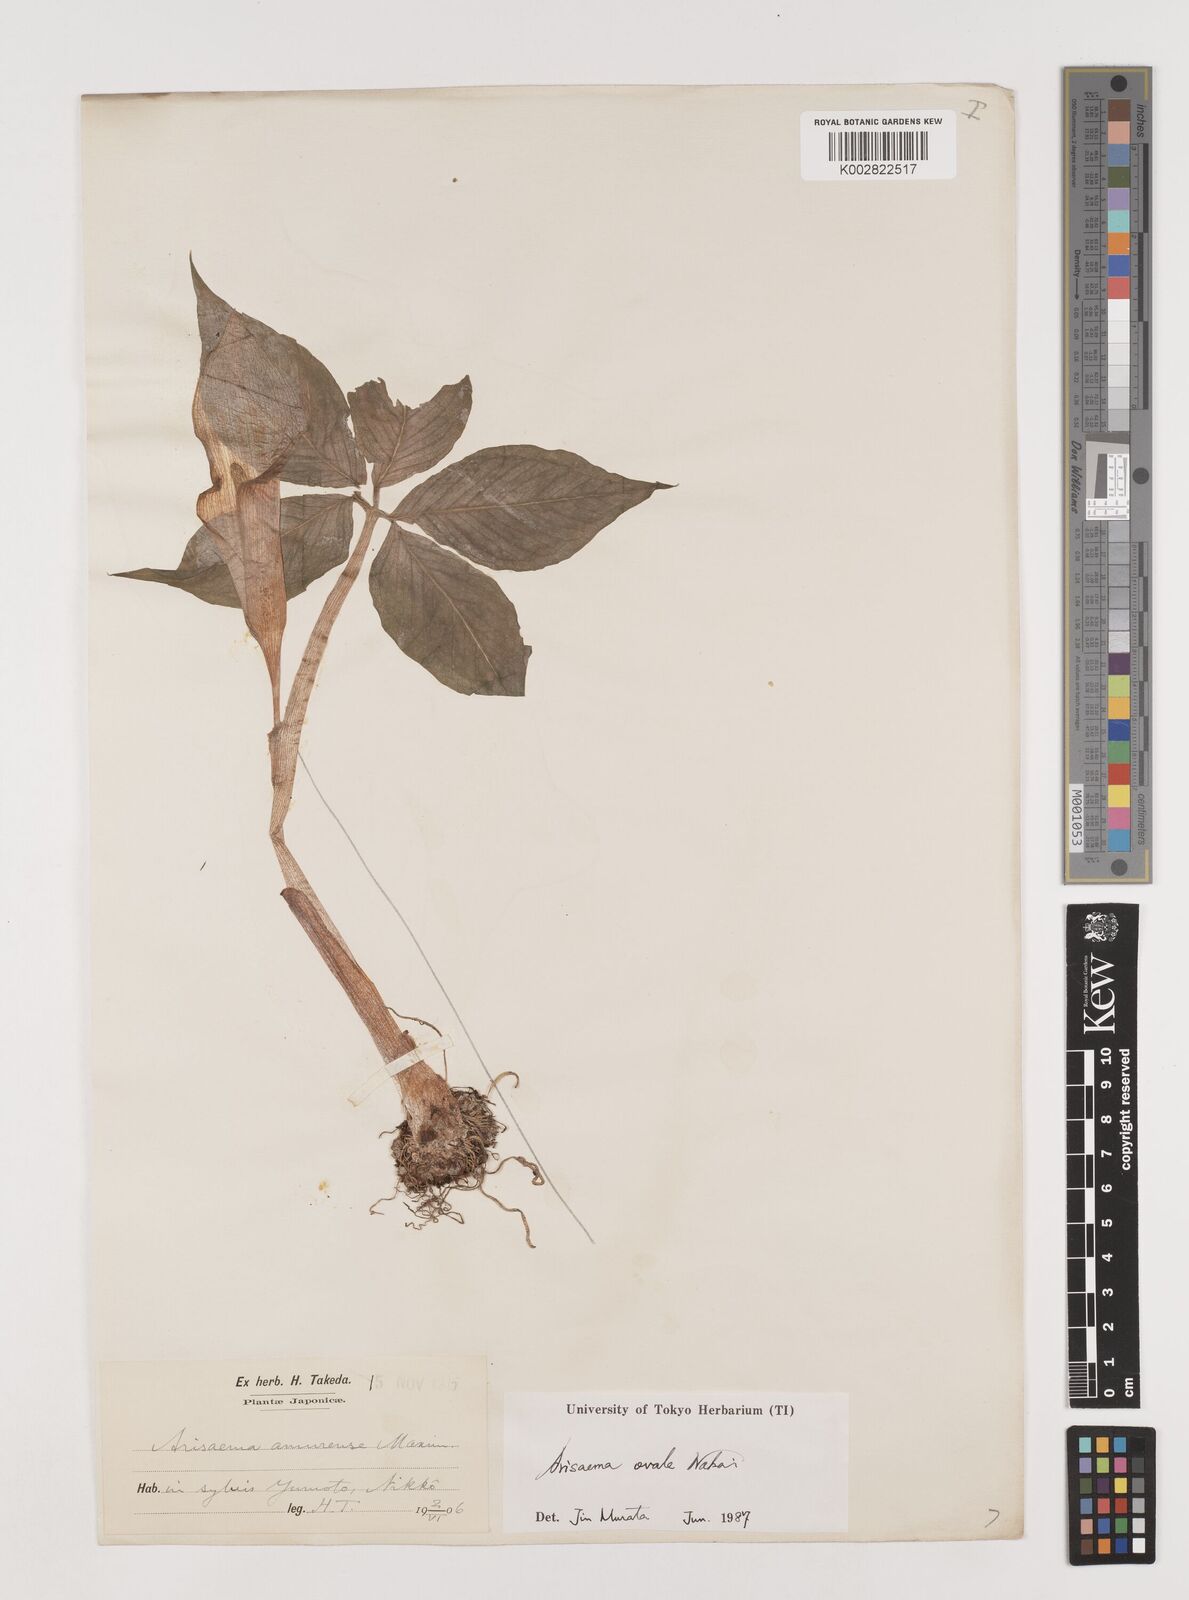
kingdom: Plantae
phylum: Tracheophyta
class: Liliopsida
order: Alismatales
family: Araceae
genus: Arisaema
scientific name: Arisaema ovale
